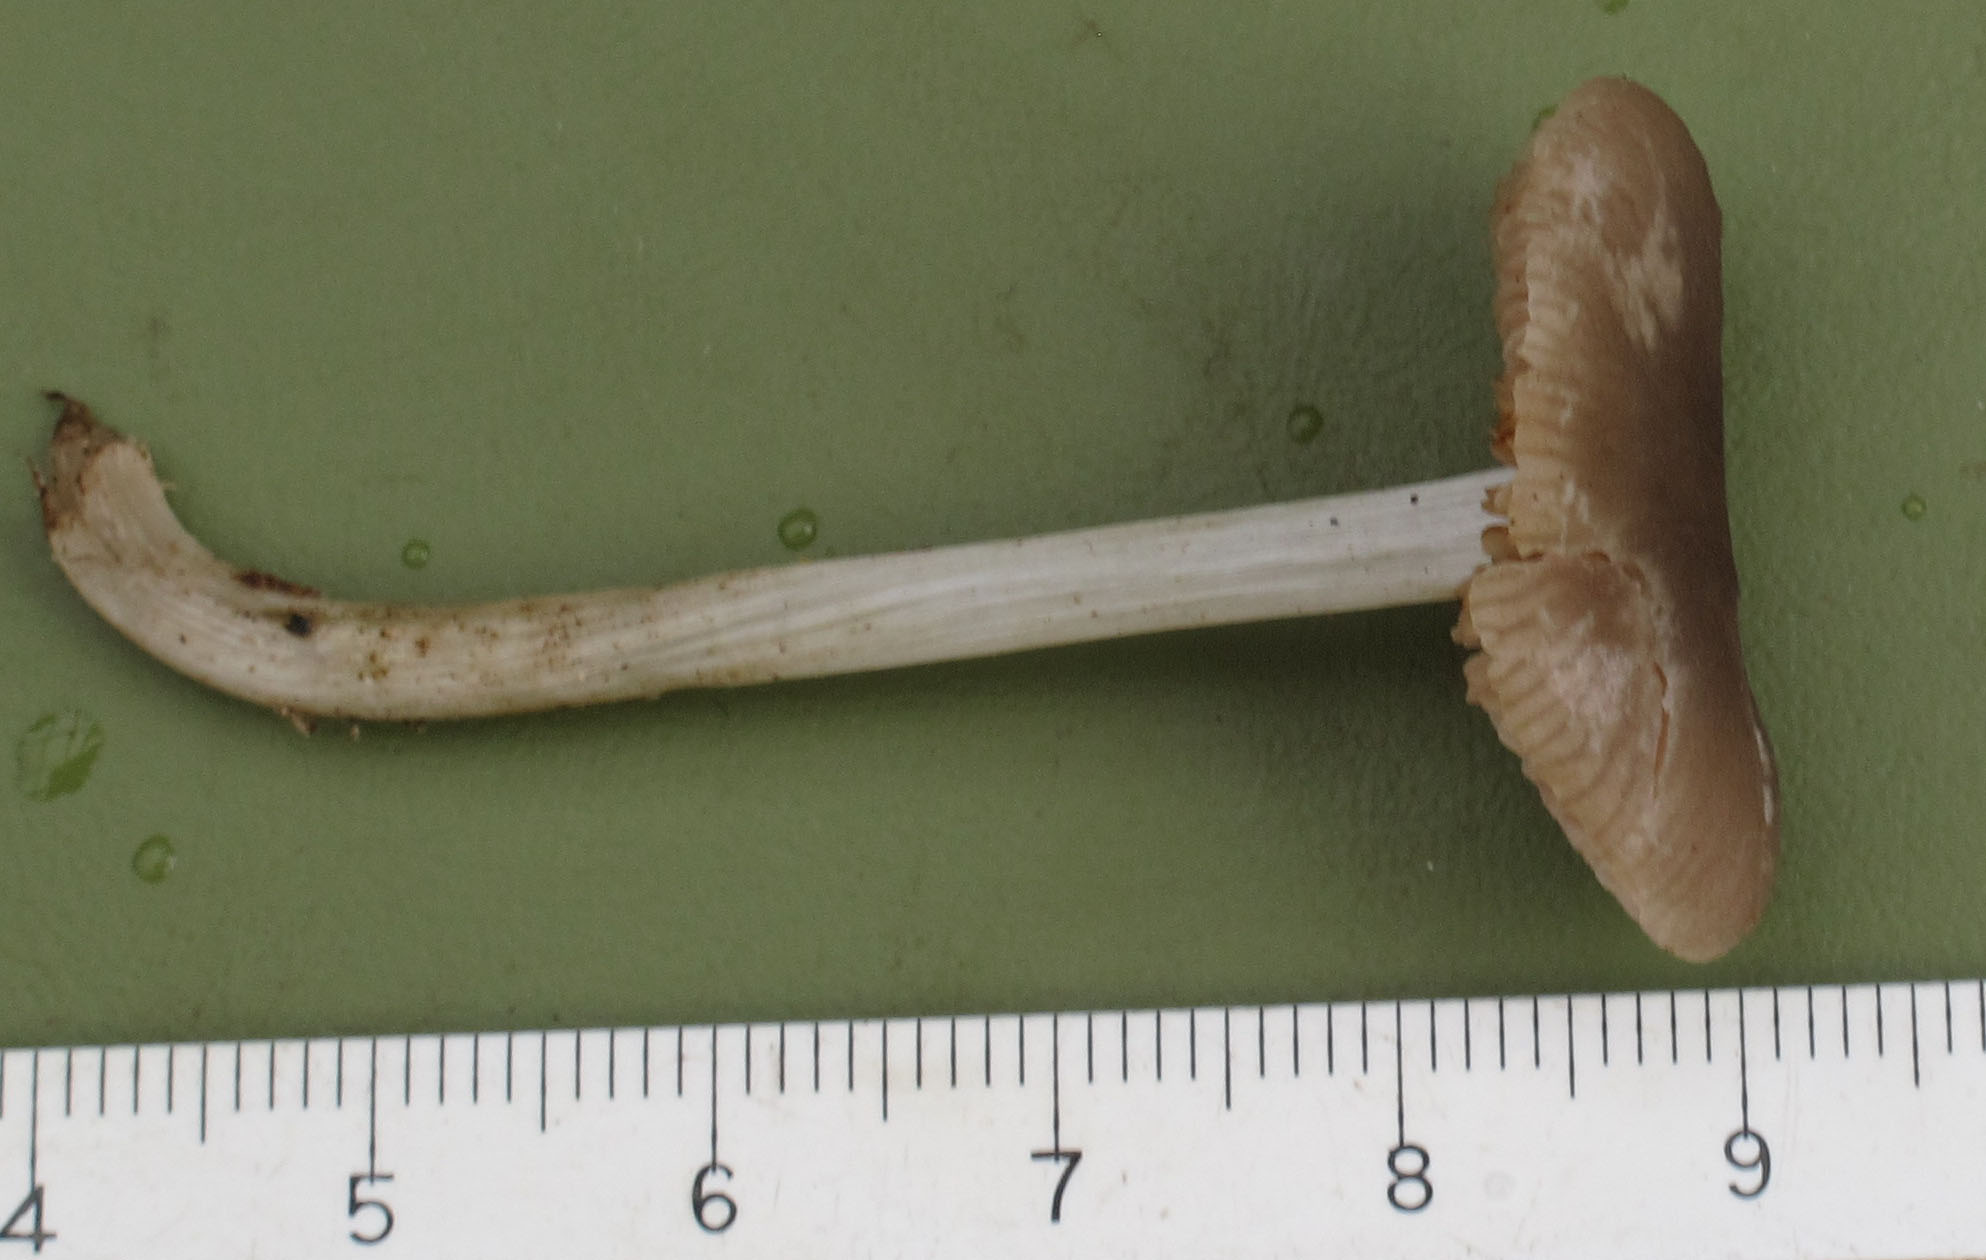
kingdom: Fungi
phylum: Basidiomycota
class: Agaricomycetes
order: Agaricales
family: Pluteaceae
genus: Pluteus
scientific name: Pluteus
